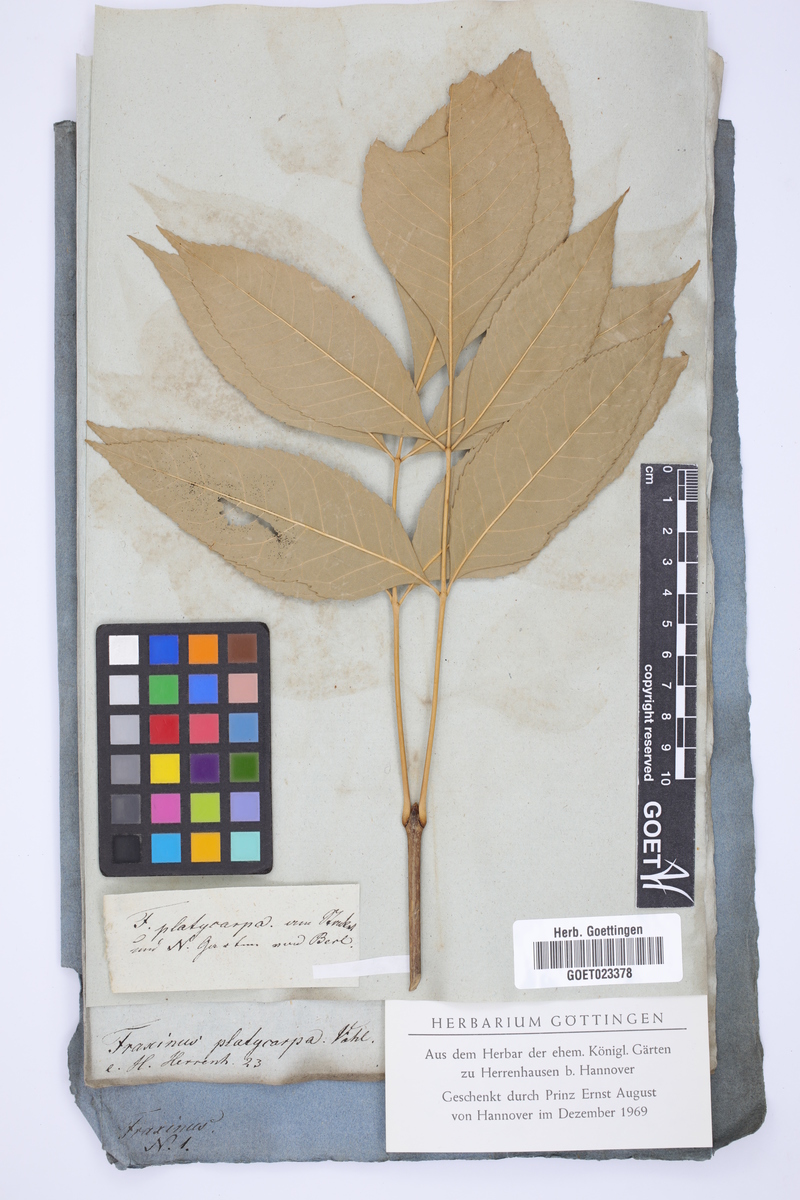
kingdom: Plantae
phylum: Tracheophyta
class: Magnoliopsida
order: Lamiales
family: Oleaceae
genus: Fraxinus
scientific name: Fraxinus caroliniana
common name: Carolina ash
